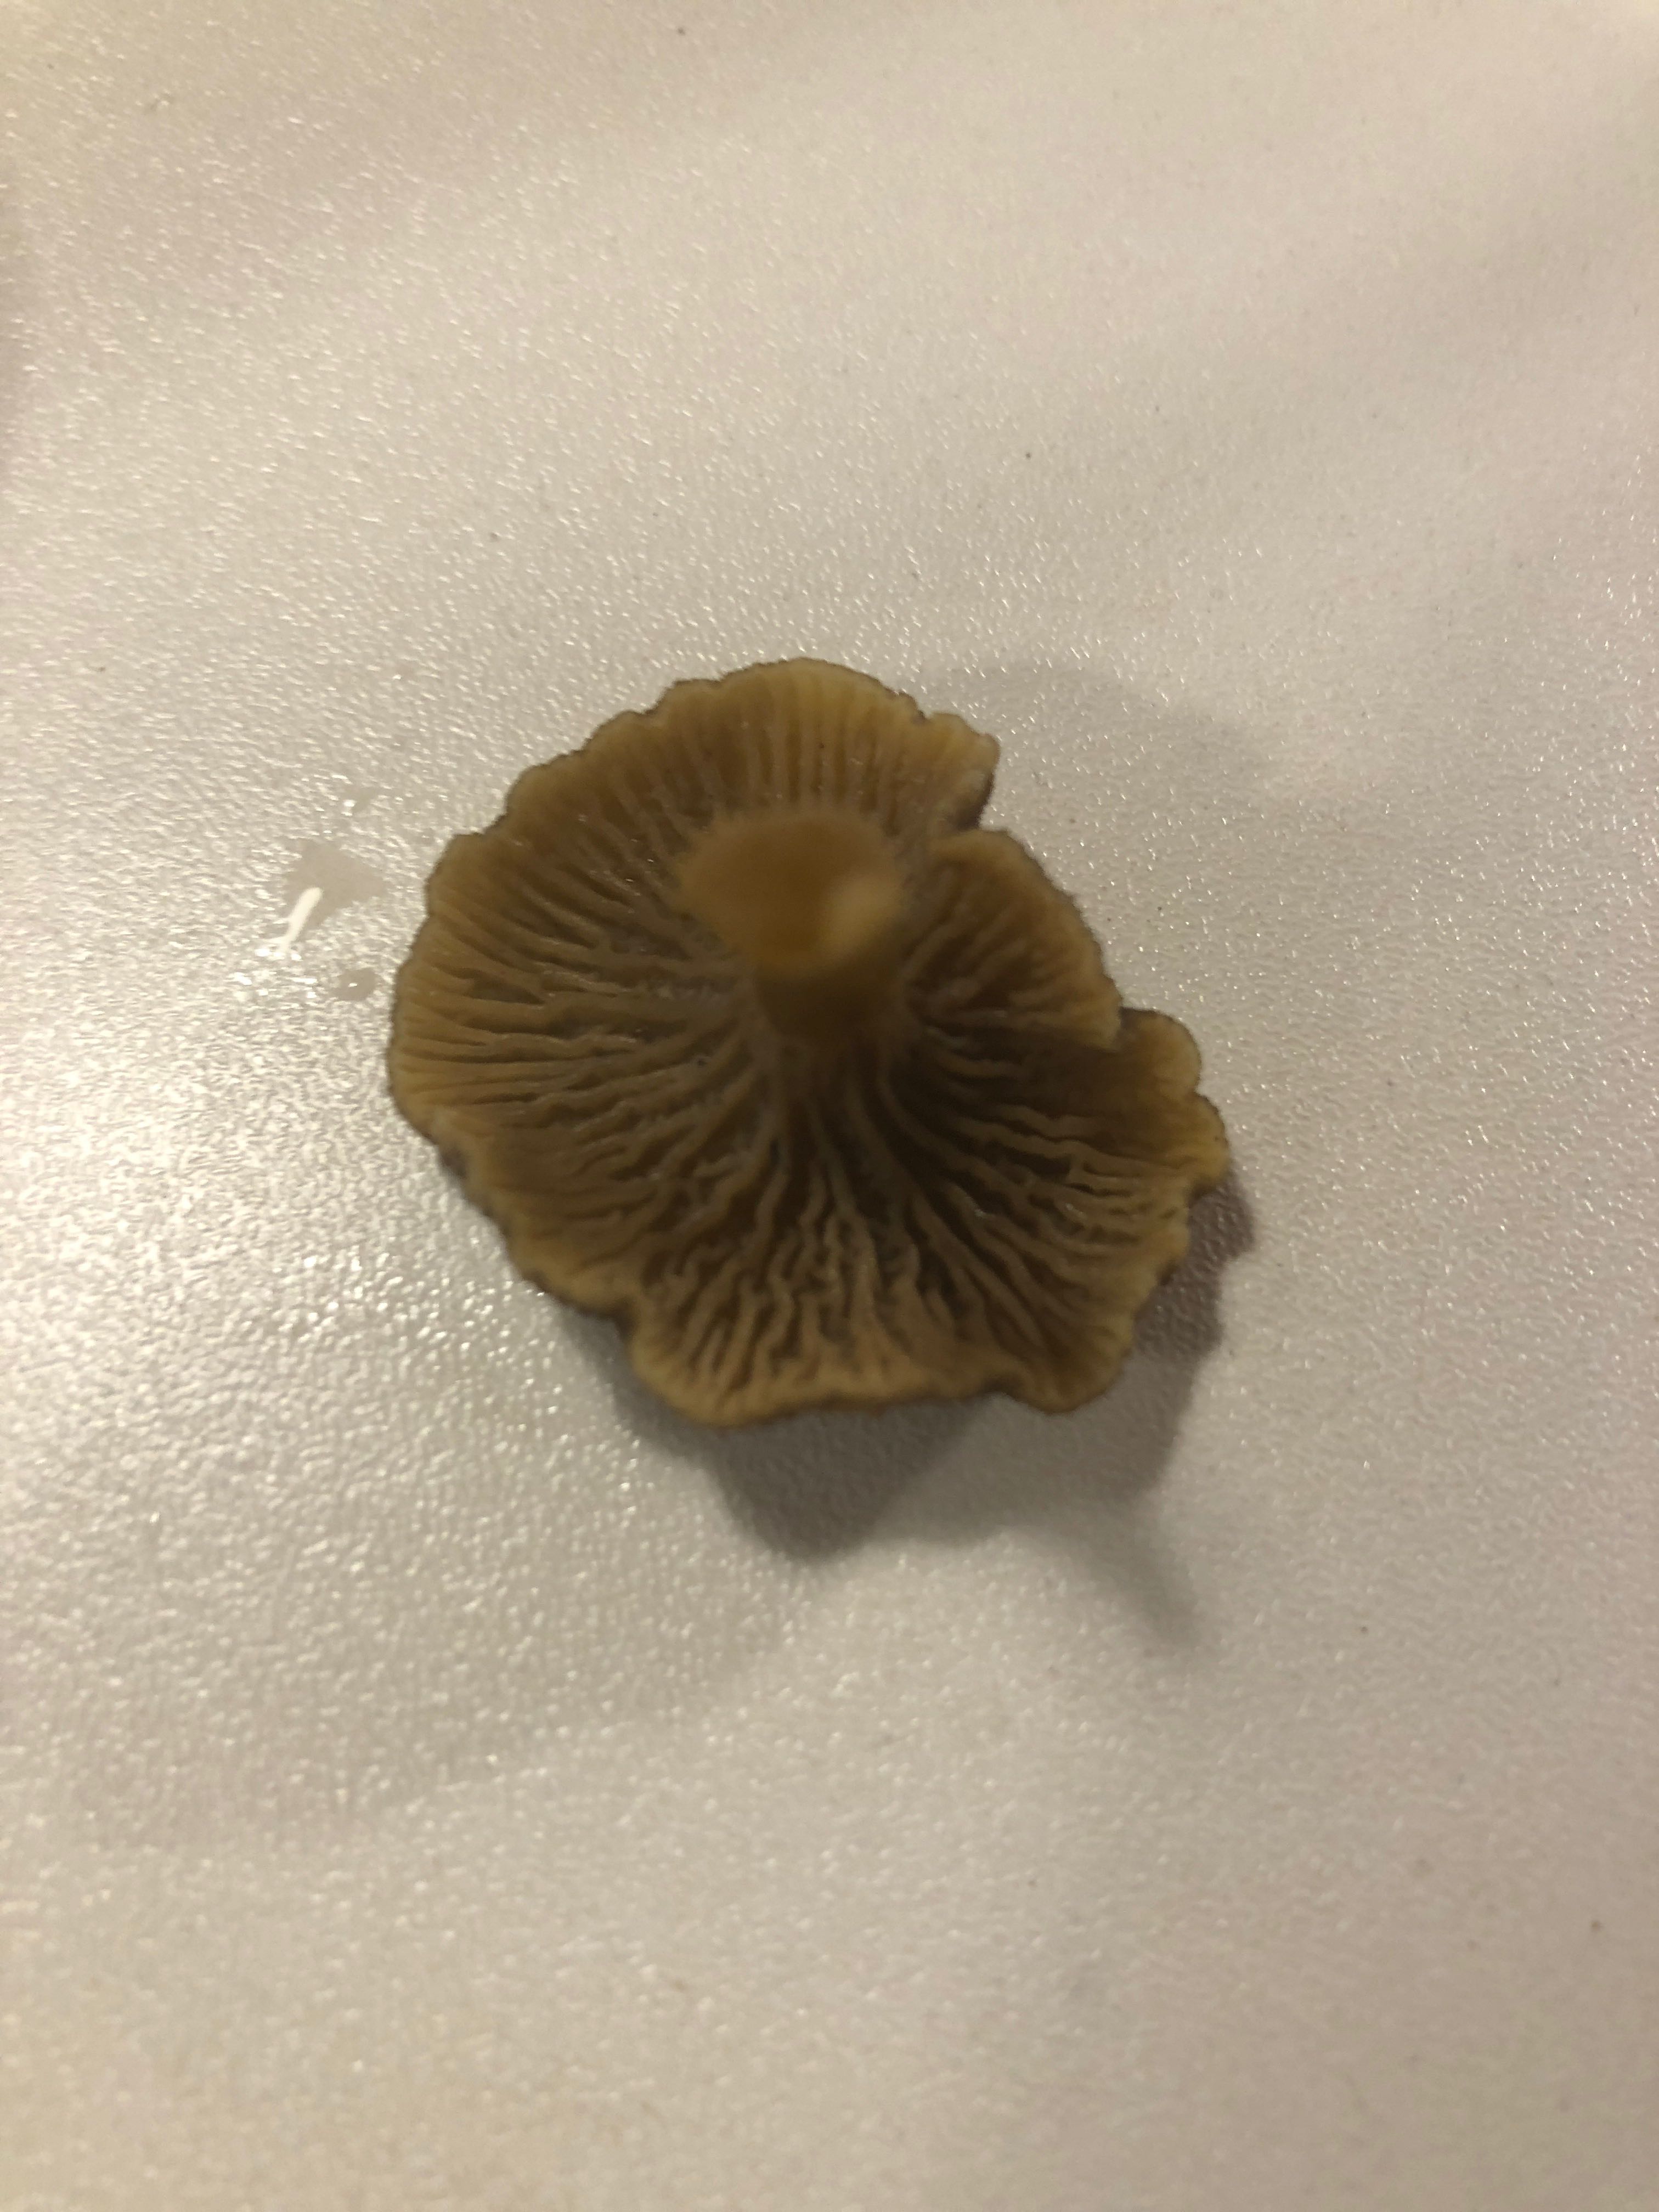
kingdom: Fungi
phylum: Basidiomycota
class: Agaricomycetes
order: Cantharellales
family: Hydnaceae
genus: Craterellus
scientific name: Craterellus tubaeformis
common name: tragt-kantarel
